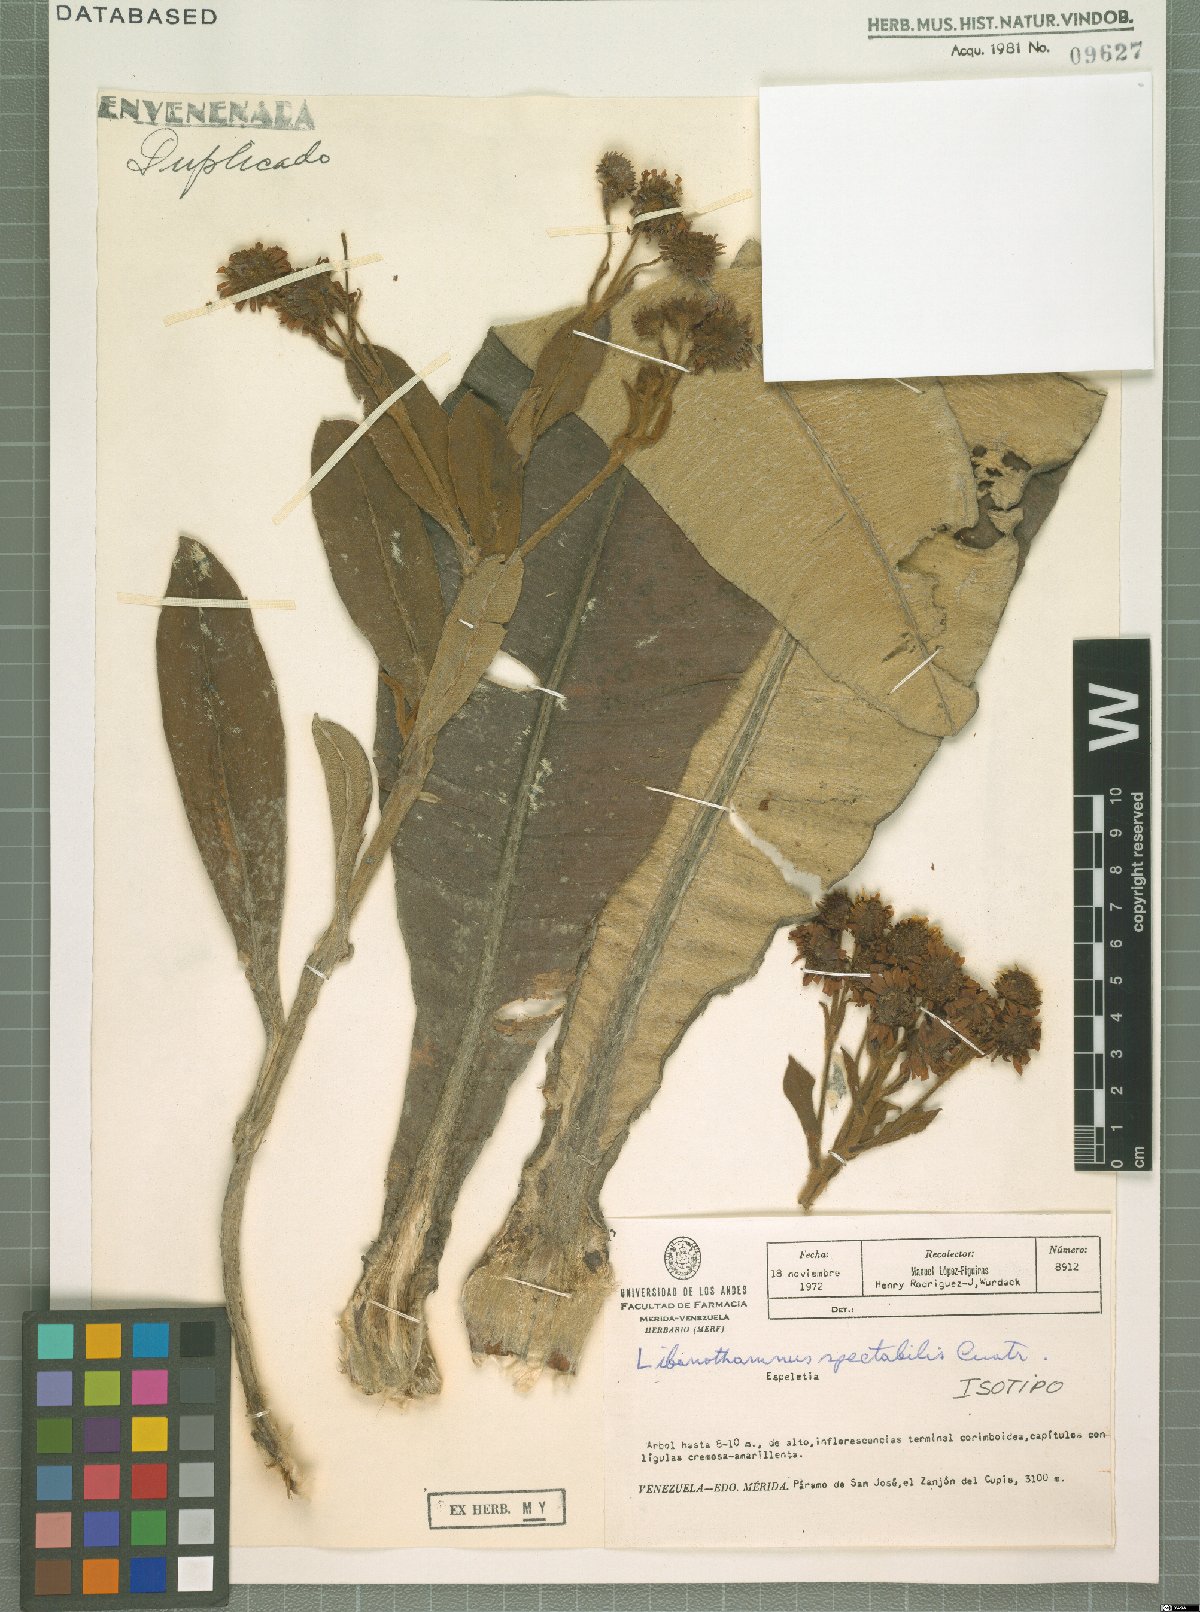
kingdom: Plantae
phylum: Tracheophyta
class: Magnoliopsida
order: Asterales
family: Asteraceae
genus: Espeletia
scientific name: Espeletia spectabilis
